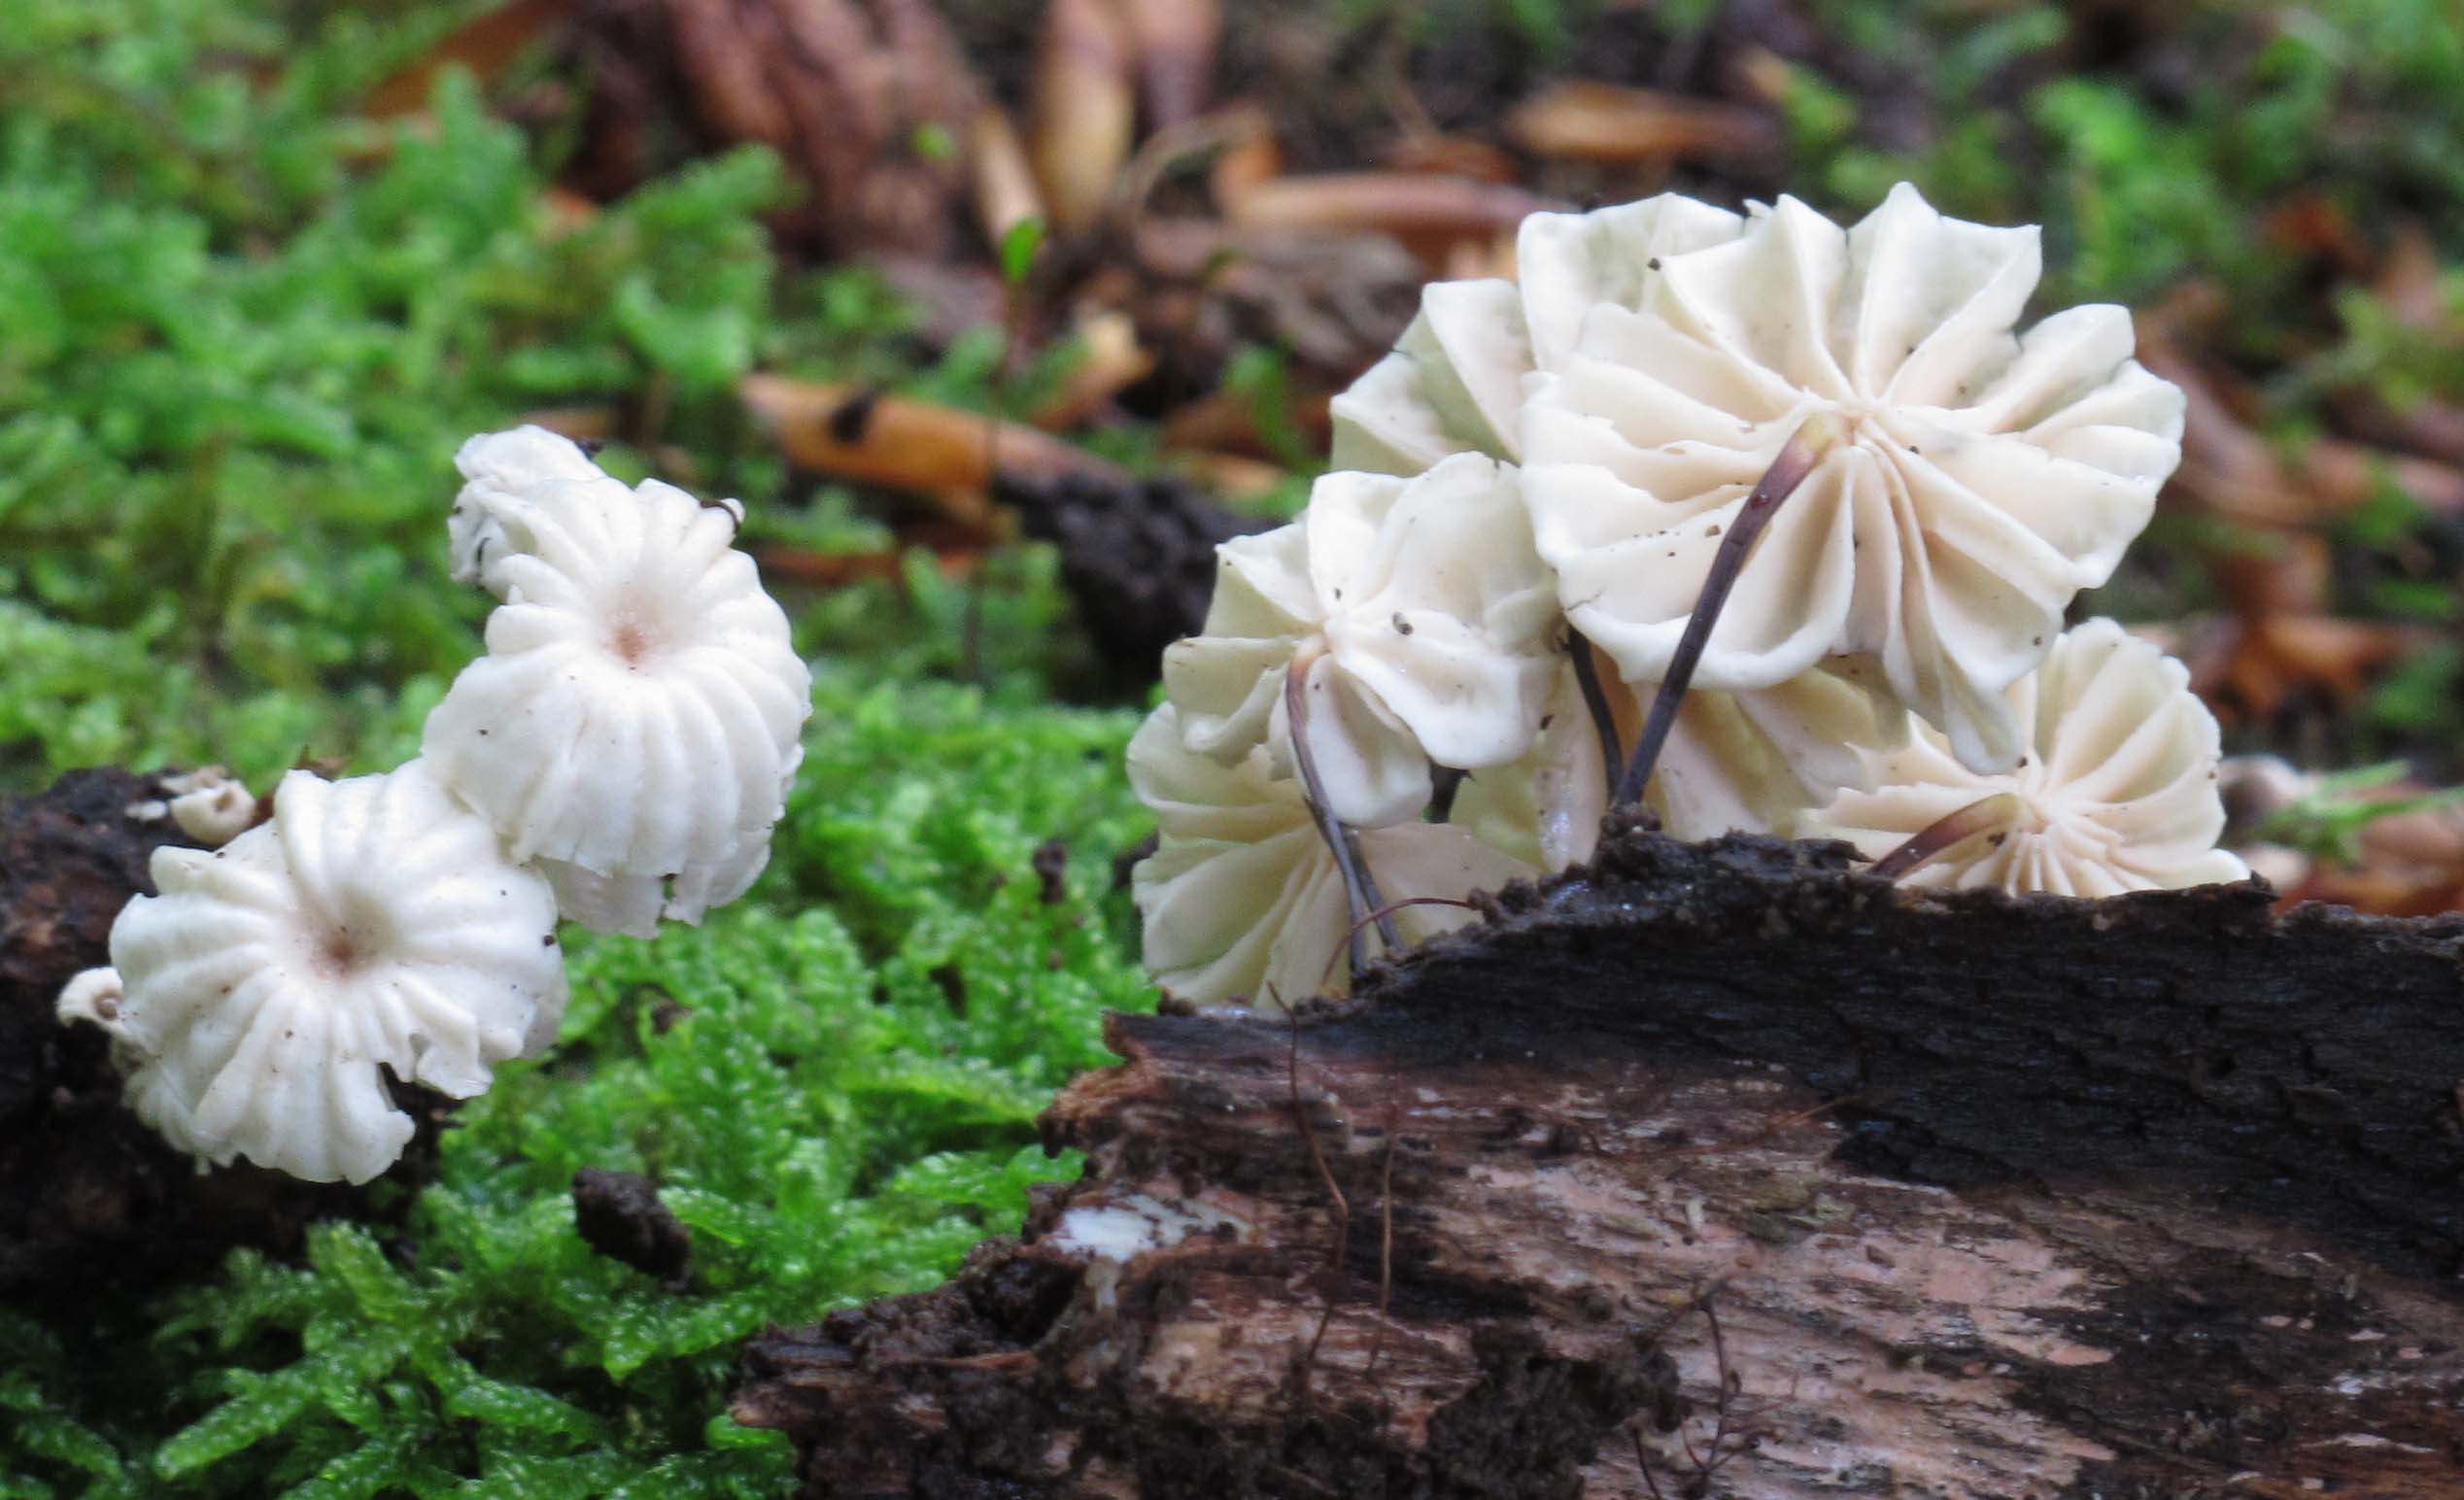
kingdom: Fungi
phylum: Basidiomycota
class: Agaricomycetes
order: Agaricales
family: Marasmiaceae
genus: Marasmius
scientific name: Marasmius rotula
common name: hjul-bruskhat
